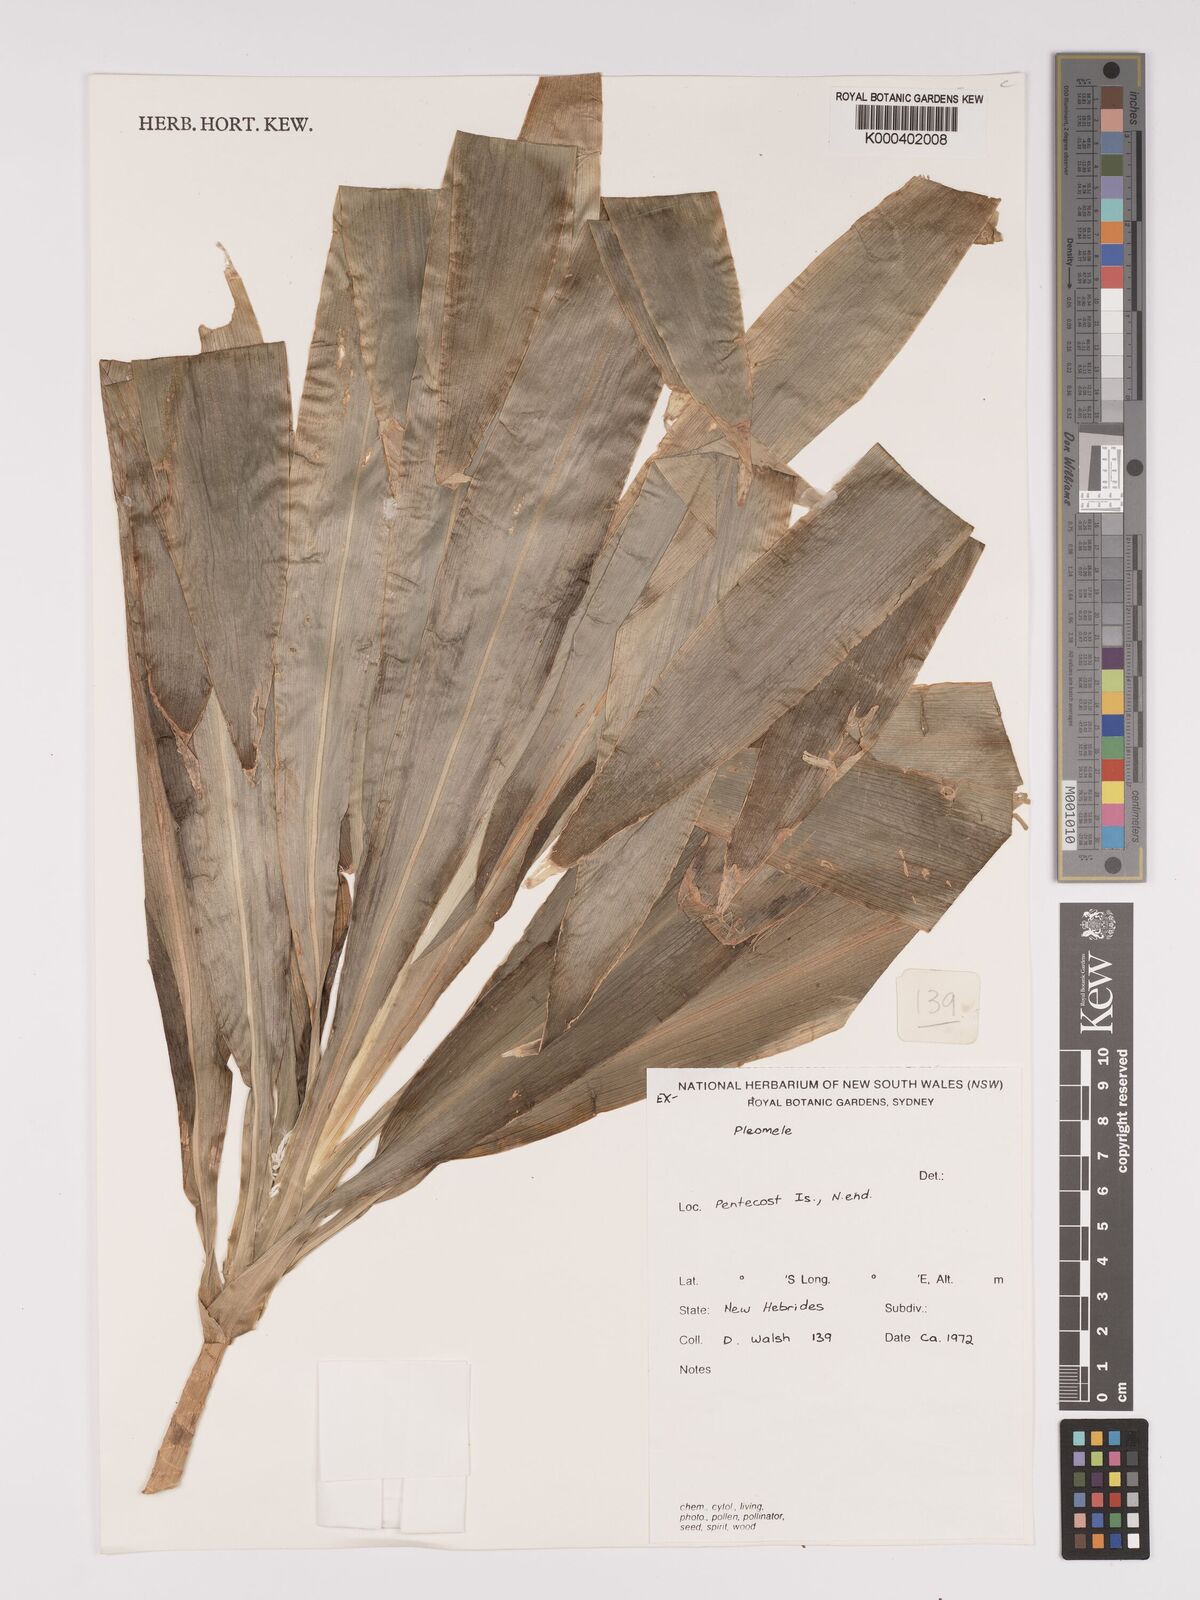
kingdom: Plantae
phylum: Tracheophyta
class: Liliopsida
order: Asparagales
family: Asparagaceae
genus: Dracaena
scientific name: Dracaena
